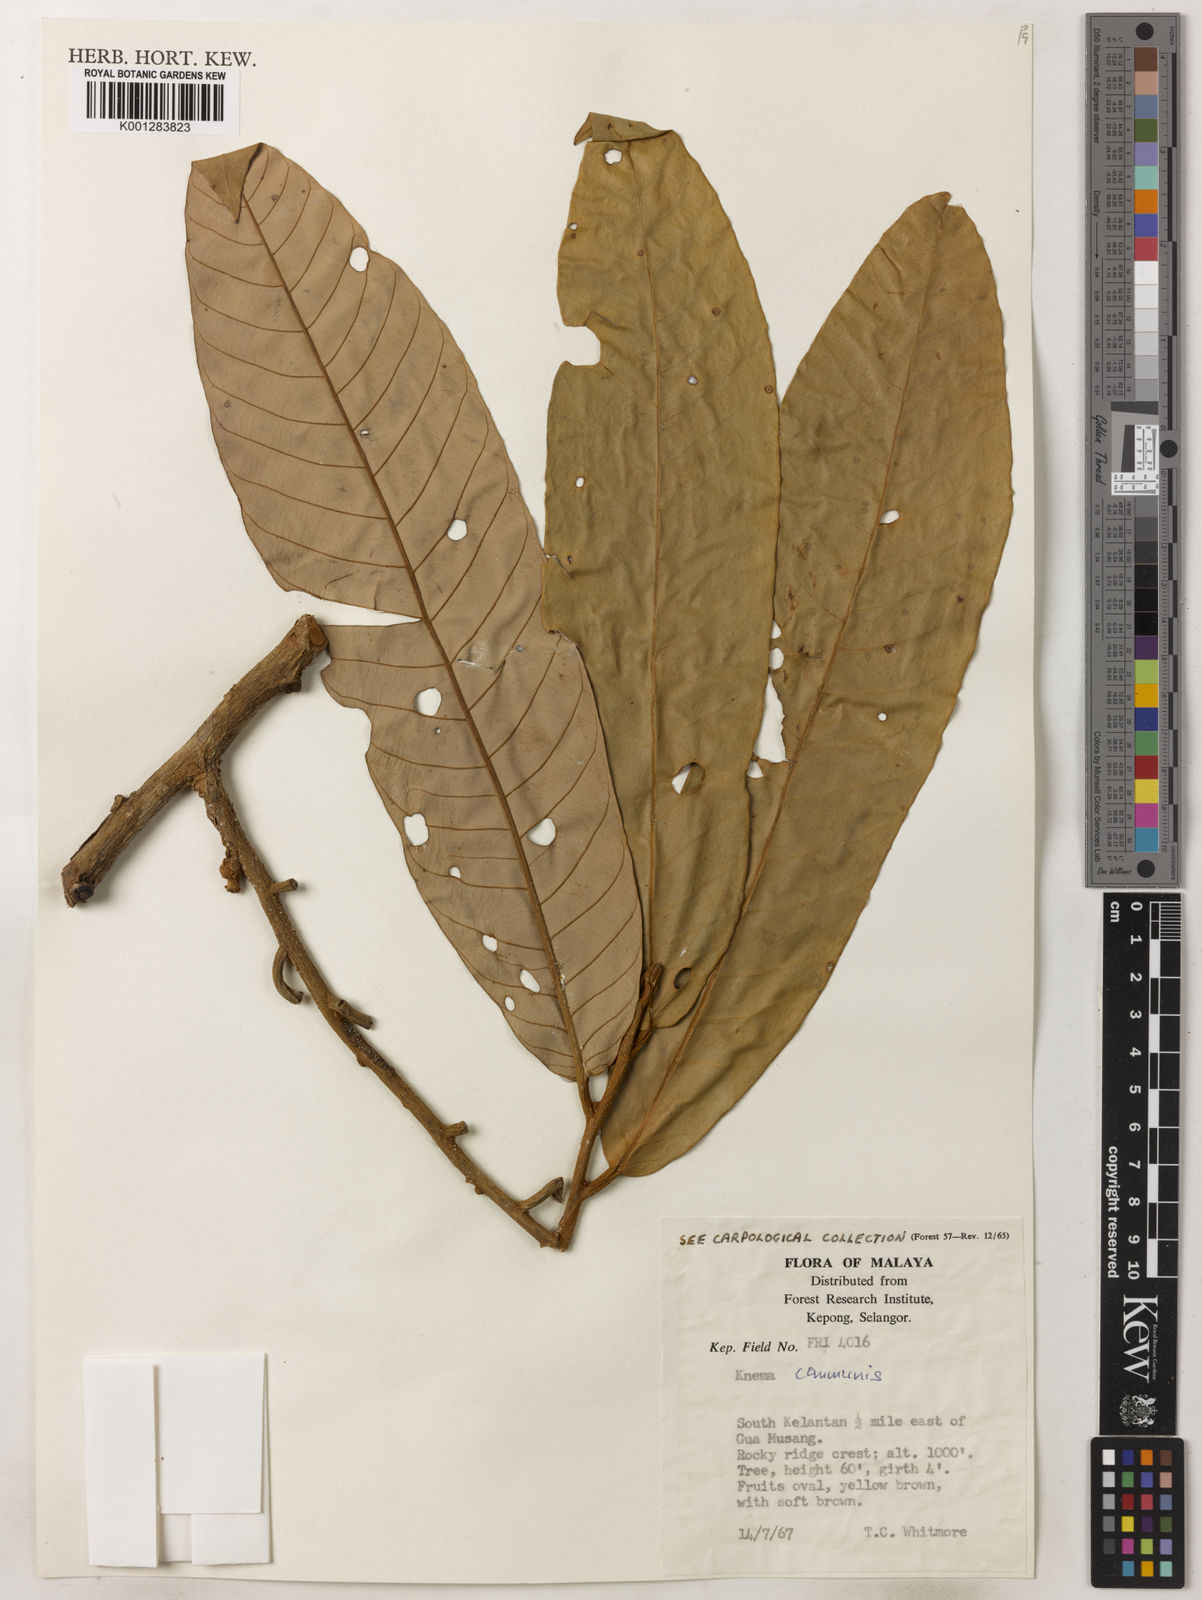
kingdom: Plantae
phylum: Tracheophyta
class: Magnoliopsida
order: Magnoliales
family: Myristicaceae
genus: Knema
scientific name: Knema communis
